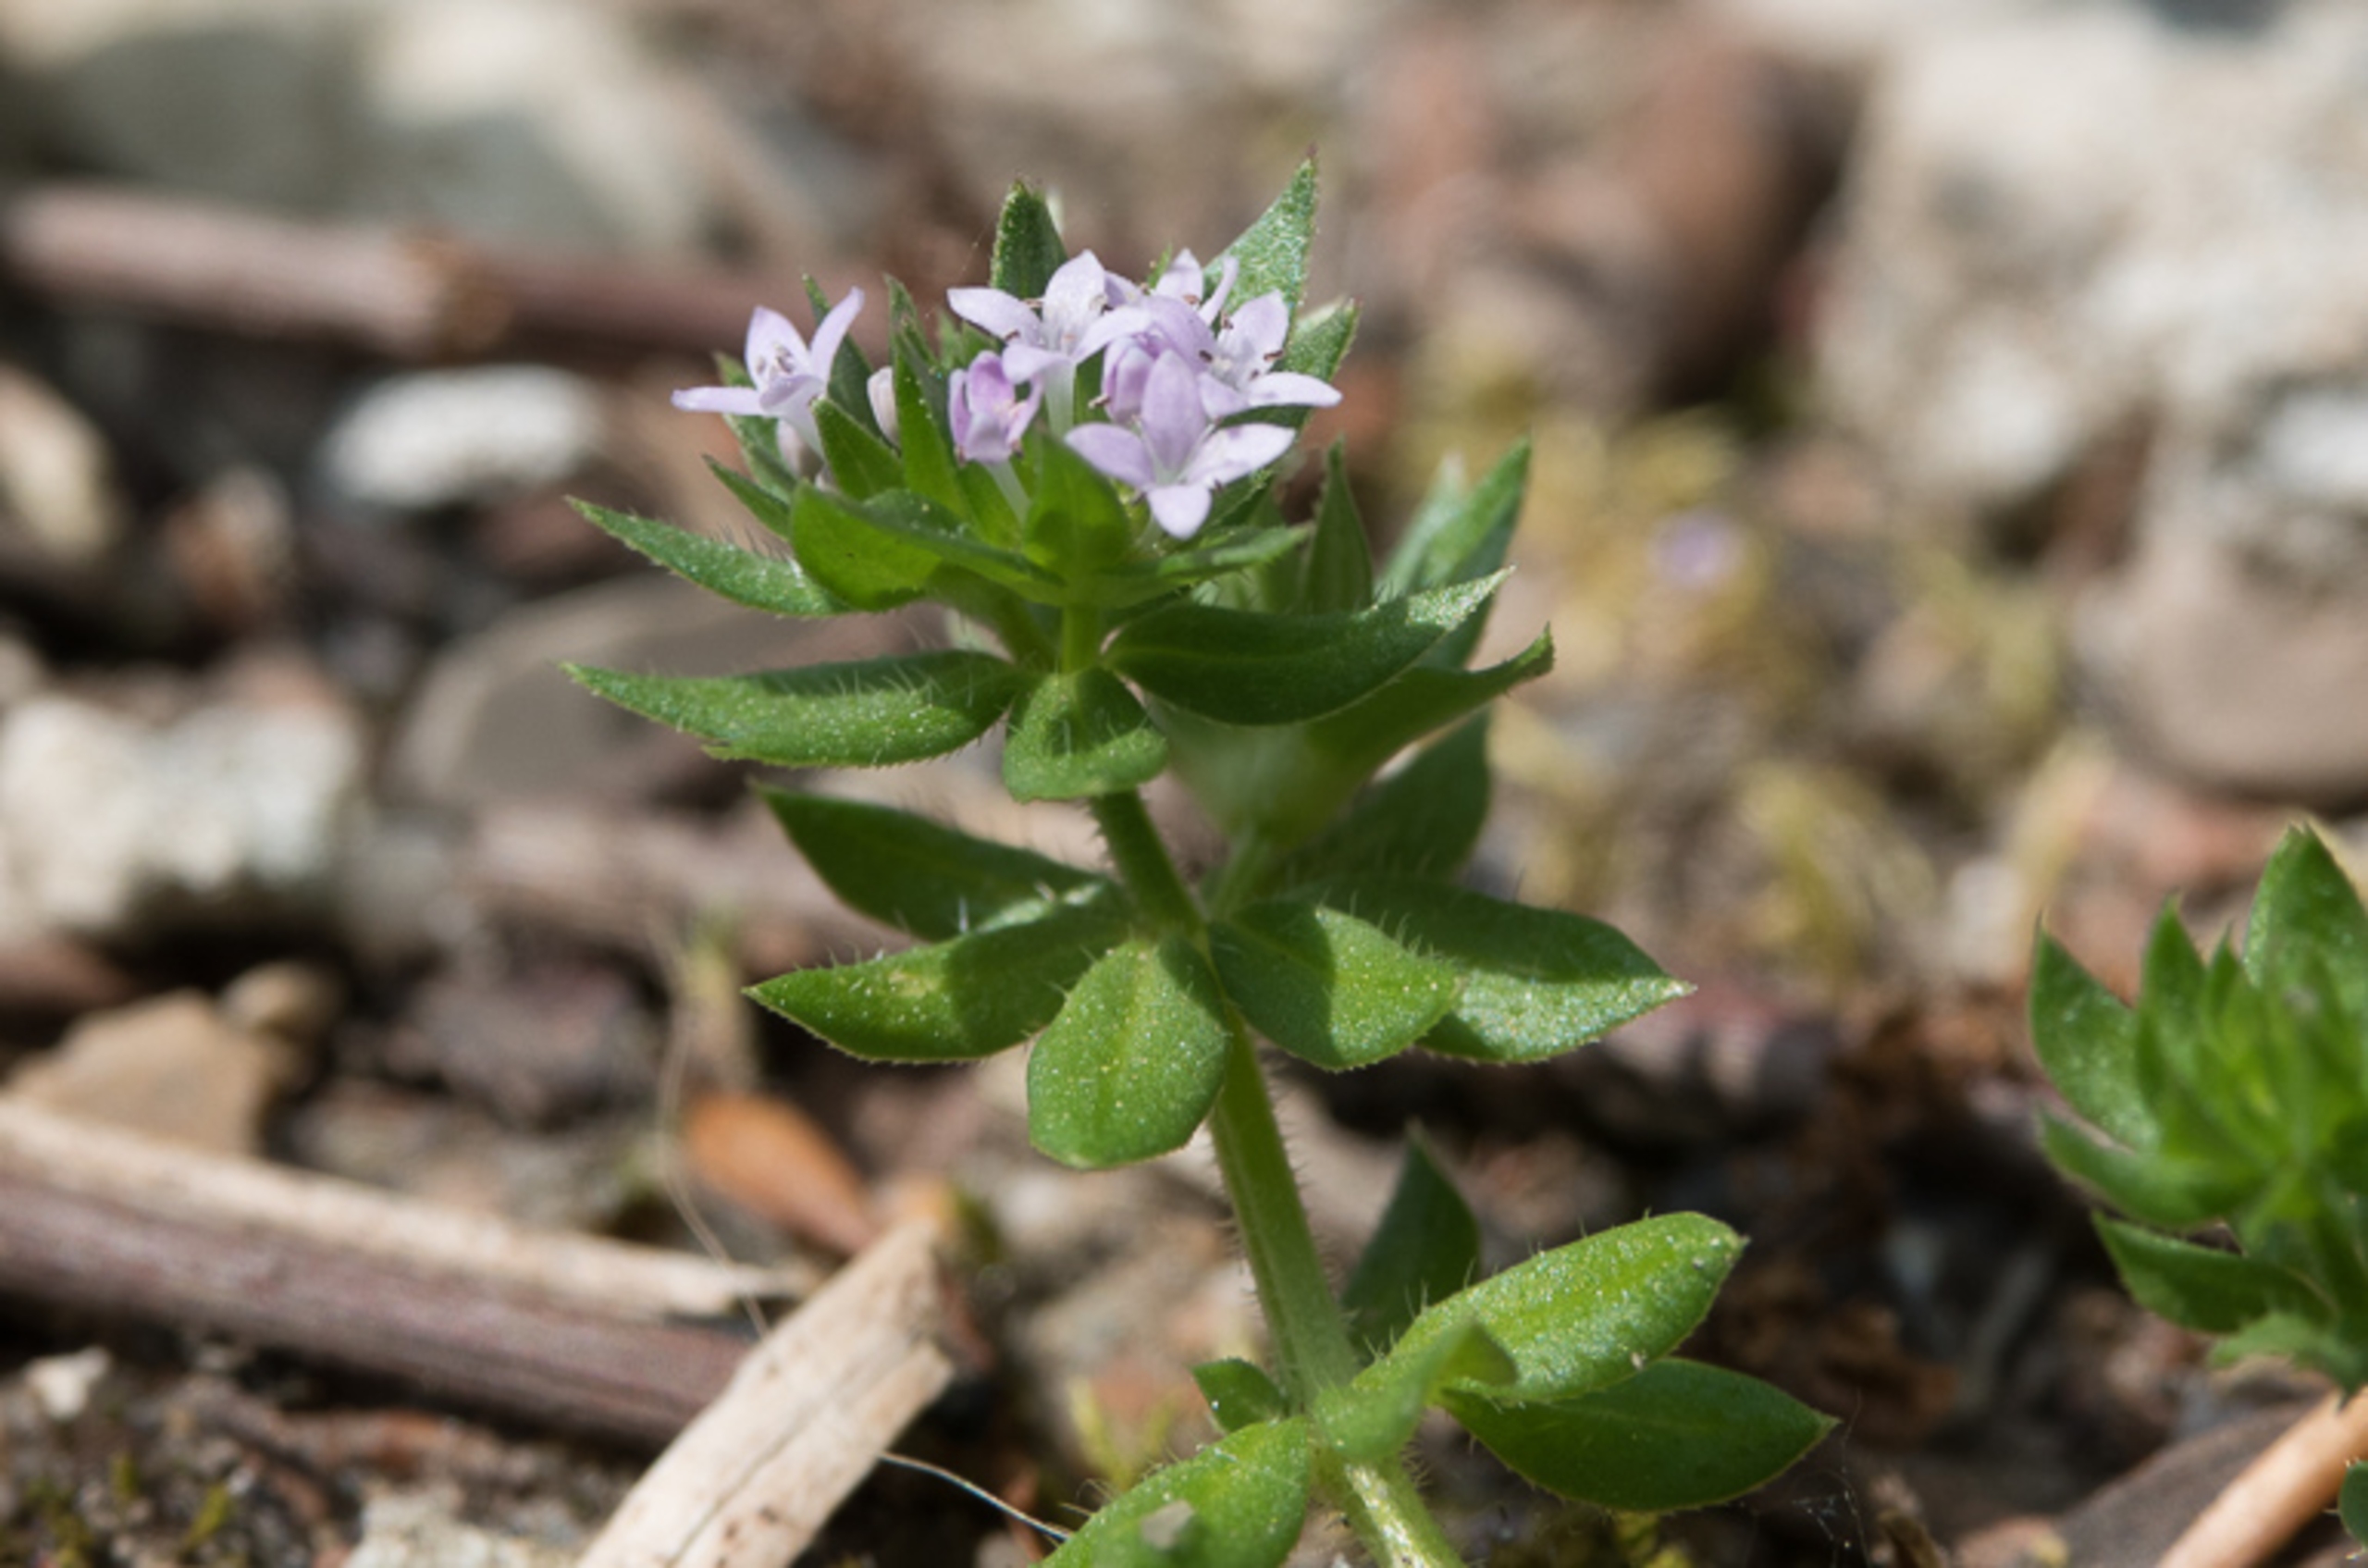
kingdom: Plantae
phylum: Tracheophyta
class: Magnoliopsida
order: Gentianales
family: Rubiaceae
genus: Sherardia
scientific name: Sherardia arvensis
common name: Blåstjerne
